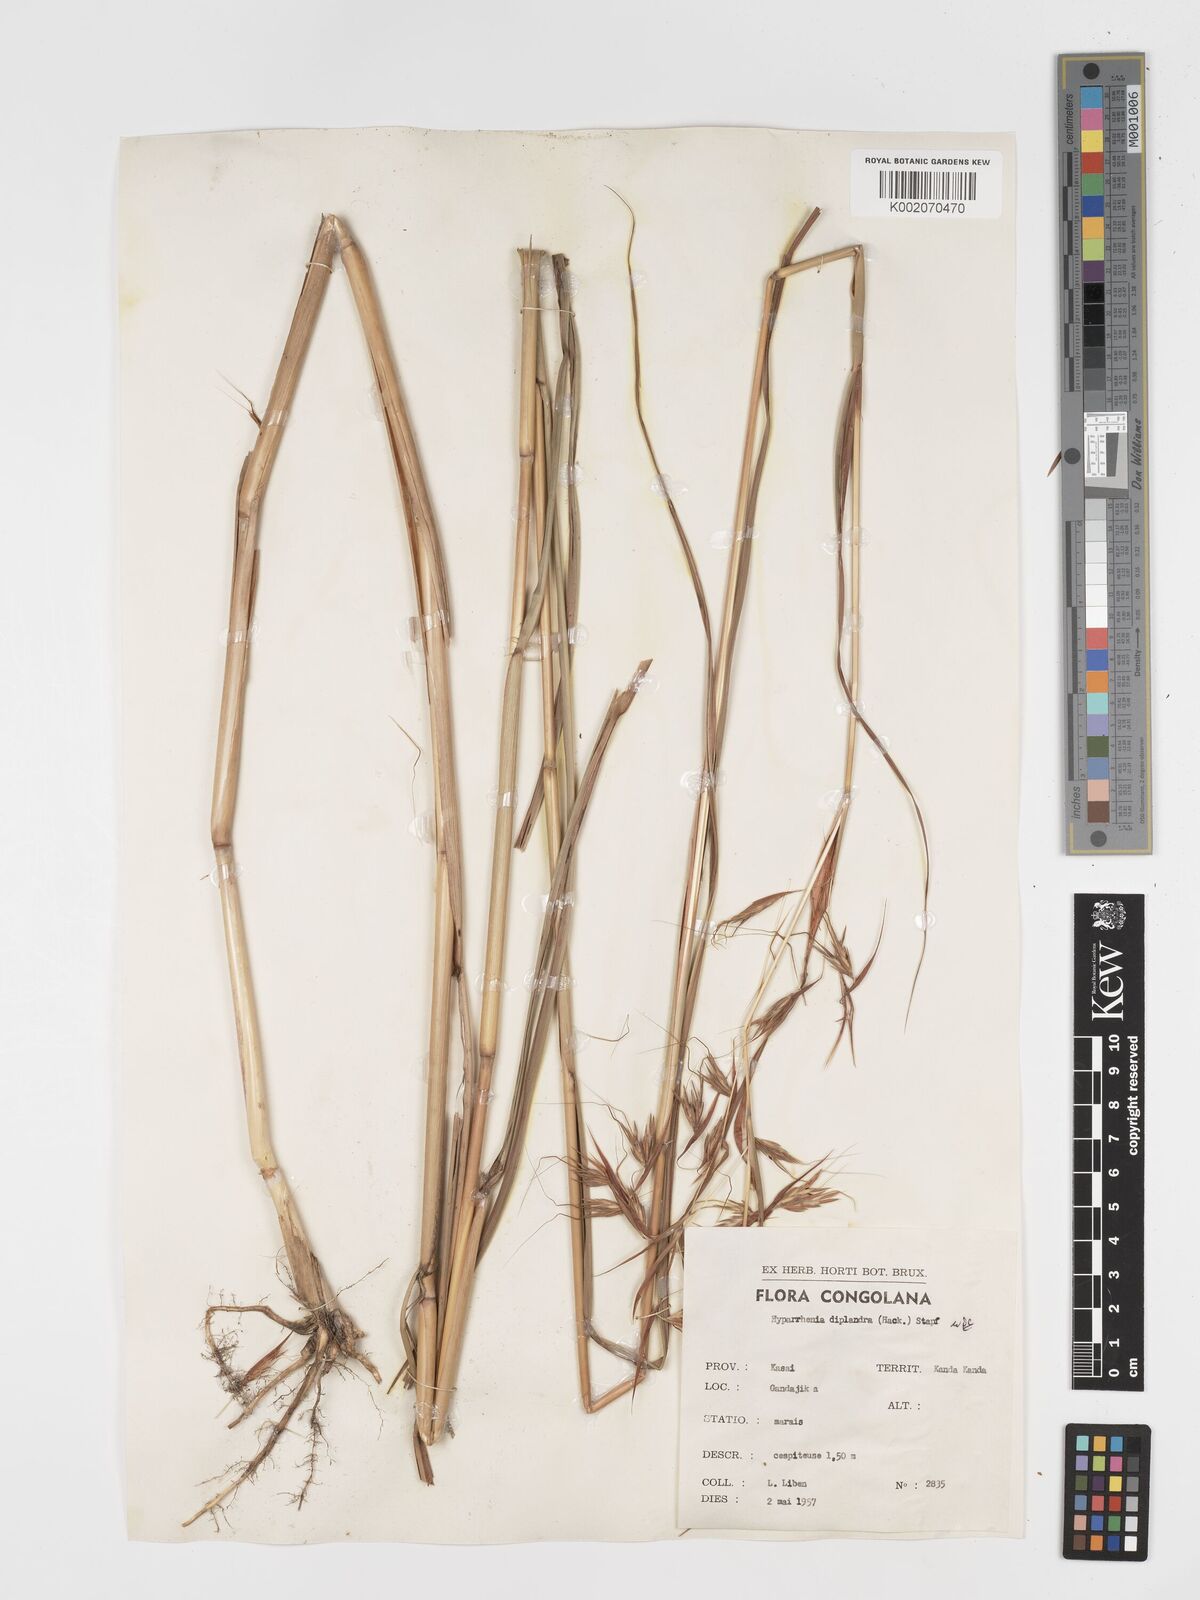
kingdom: Plantae
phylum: Tracheophyta
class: Liliopsida
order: Poales
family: Poaceae
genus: Hyparrhenia
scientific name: Hyparrhenia diplandra
